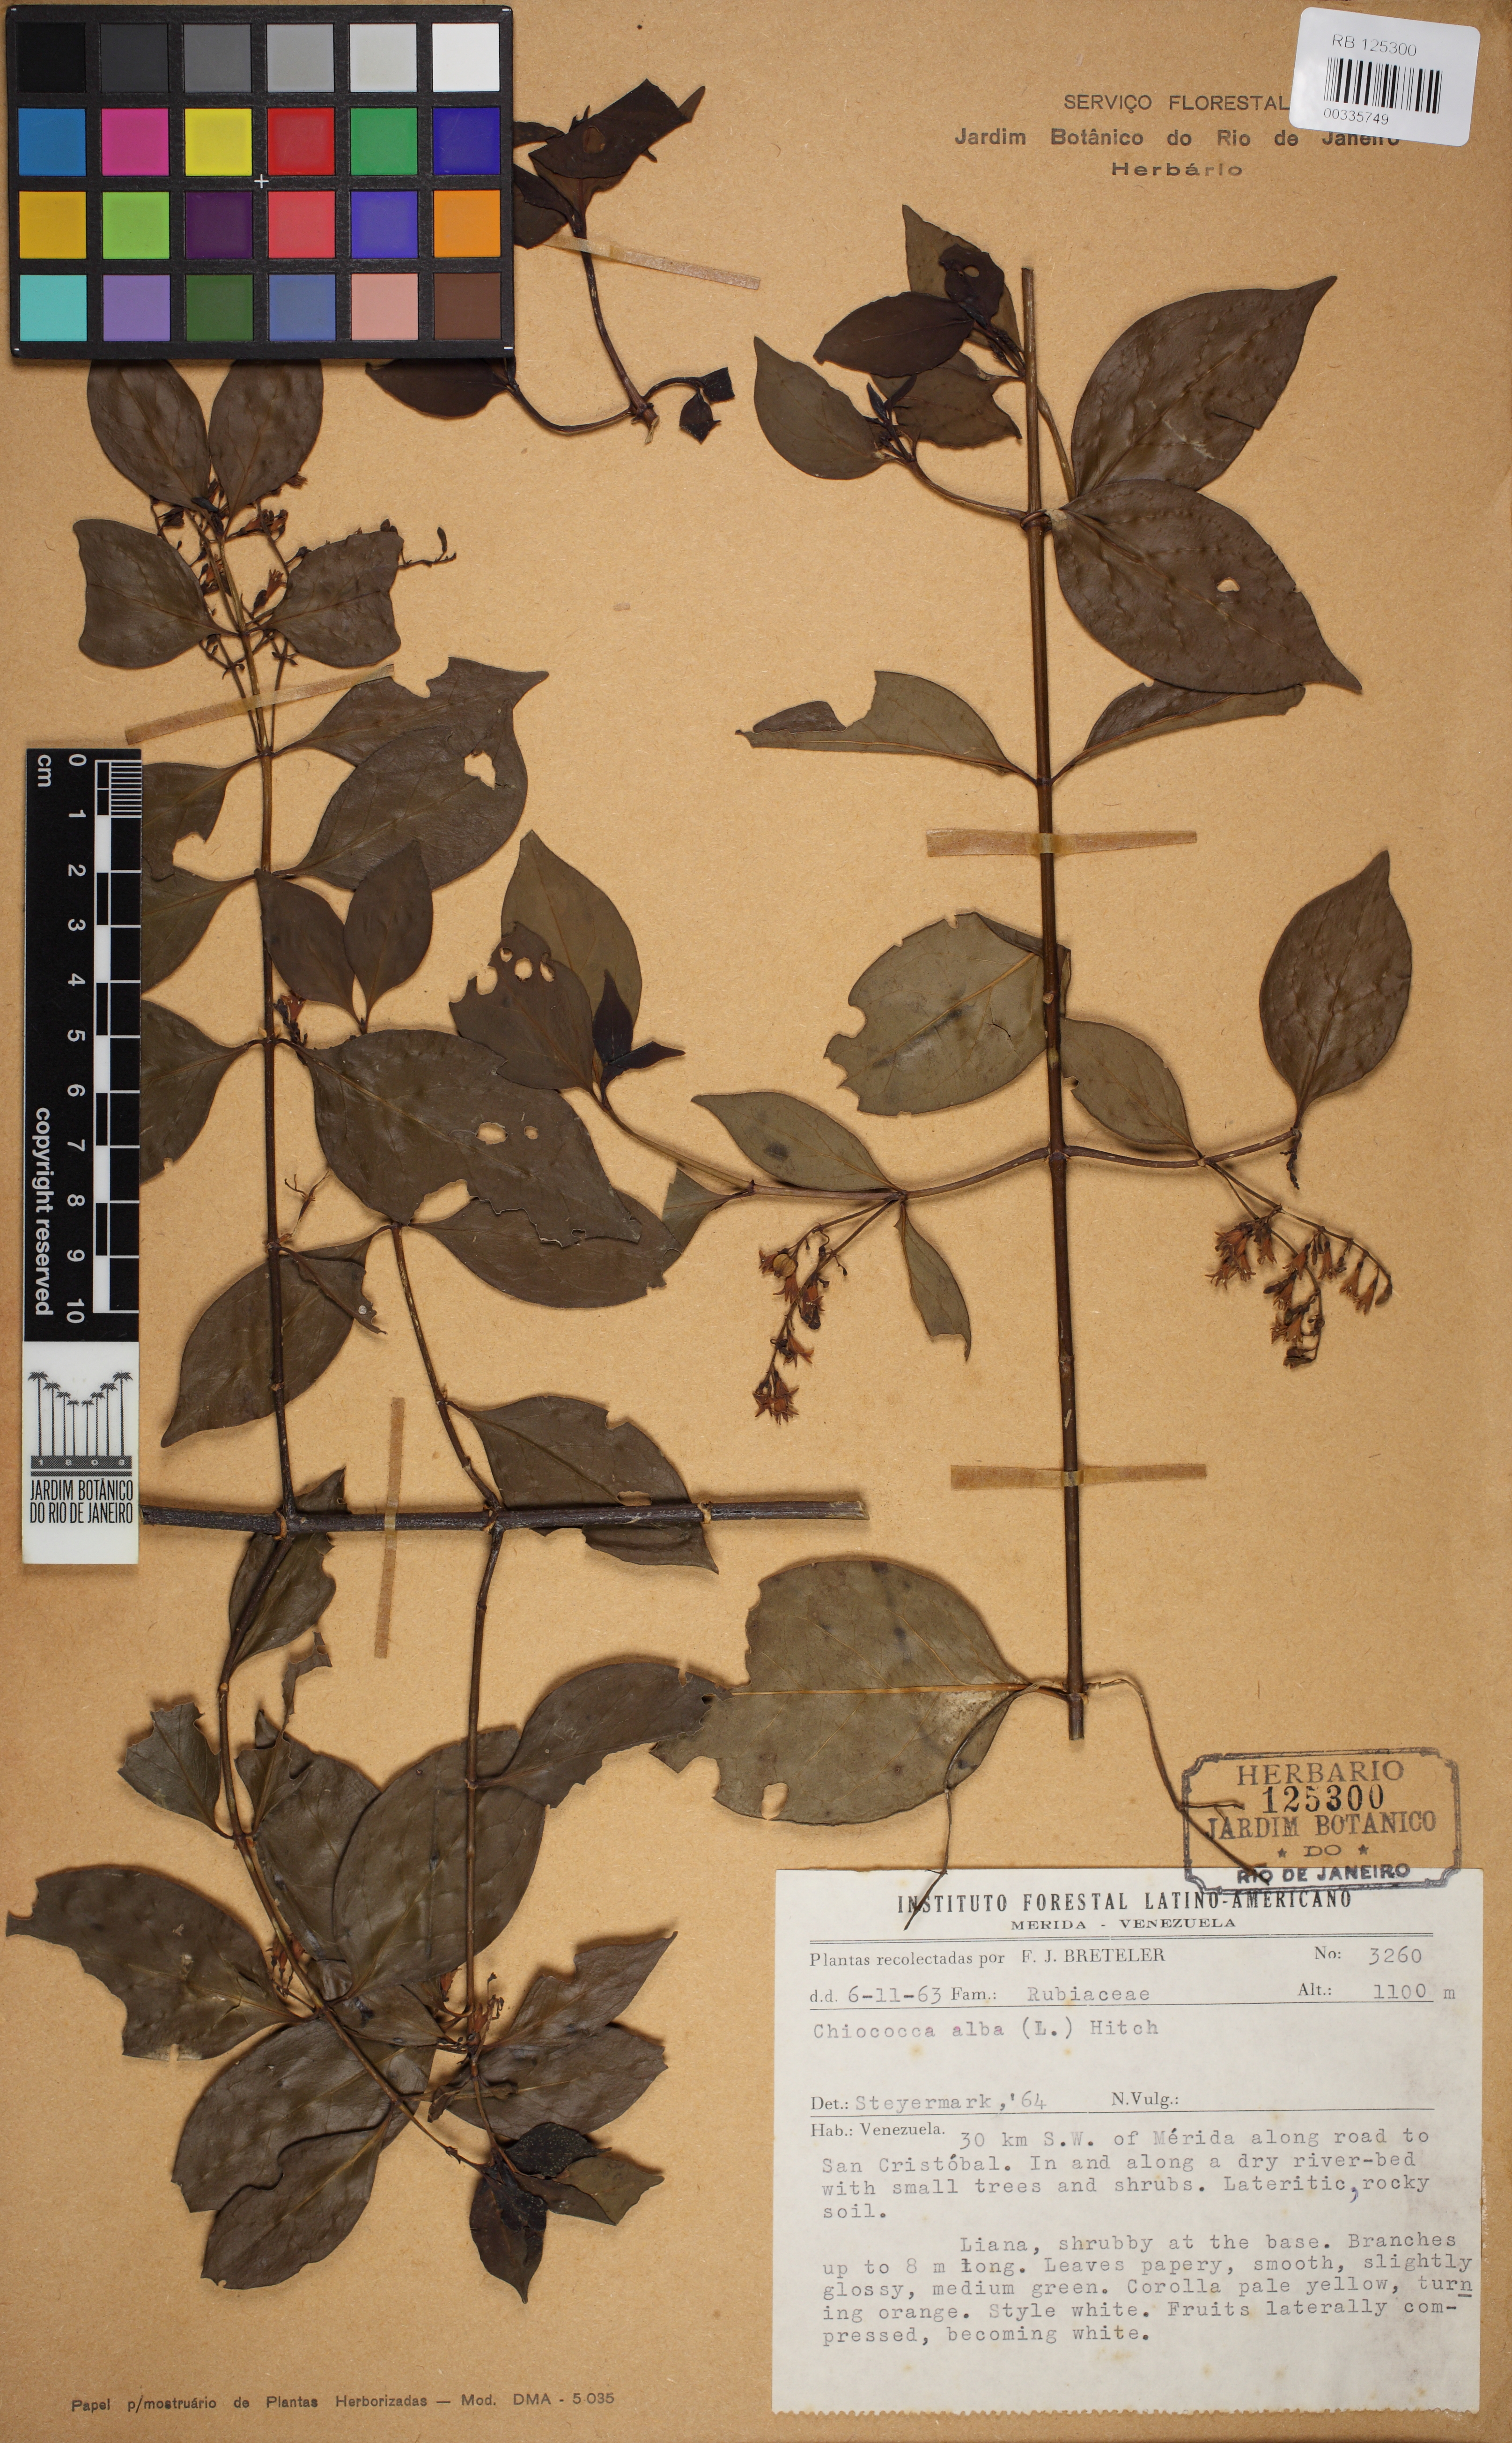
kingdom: Plantae
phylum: Tracheophyta
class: Magnoliopsida
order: Gentianales
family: Rubiaceae
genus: Chiococca
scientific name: Chiococca alba
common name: Snowberry
